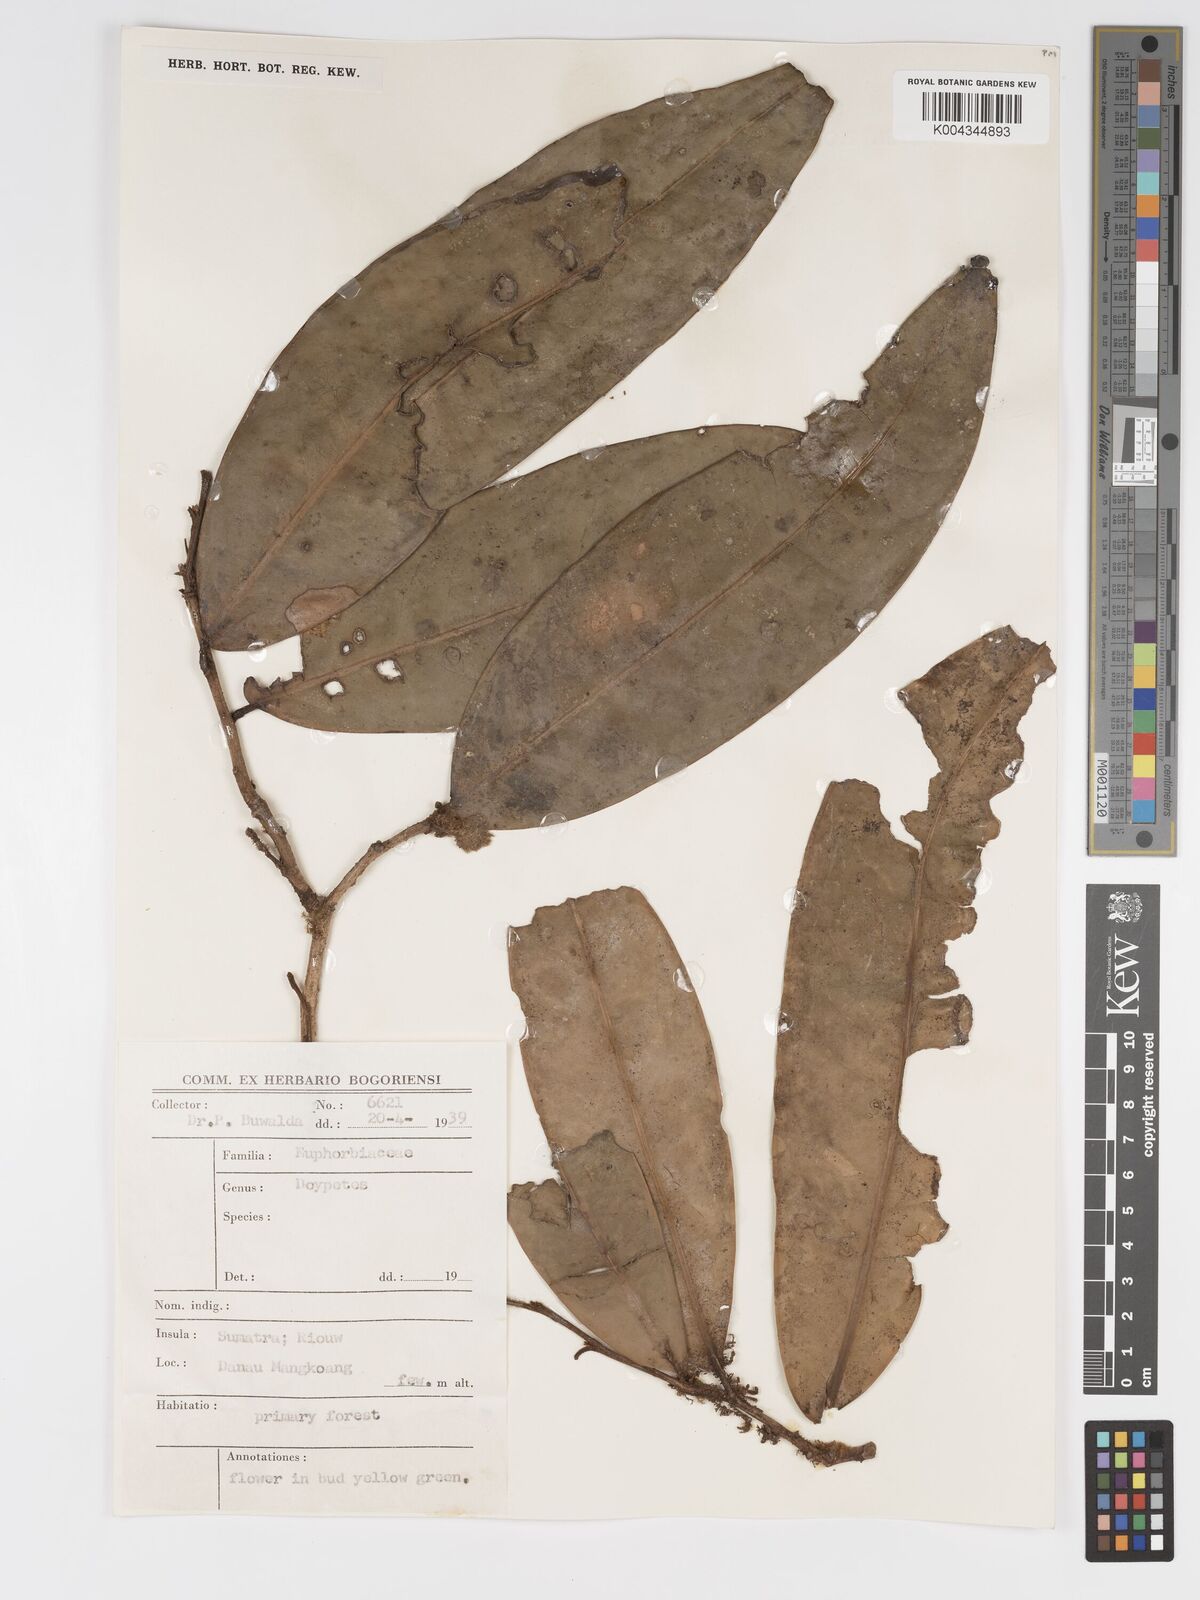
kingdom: Plantae
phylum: Tracheophyta
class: Magnoliopsida
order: Malpighiales
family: Putranjivaceae
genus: Drypetes
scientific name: Drypetes
